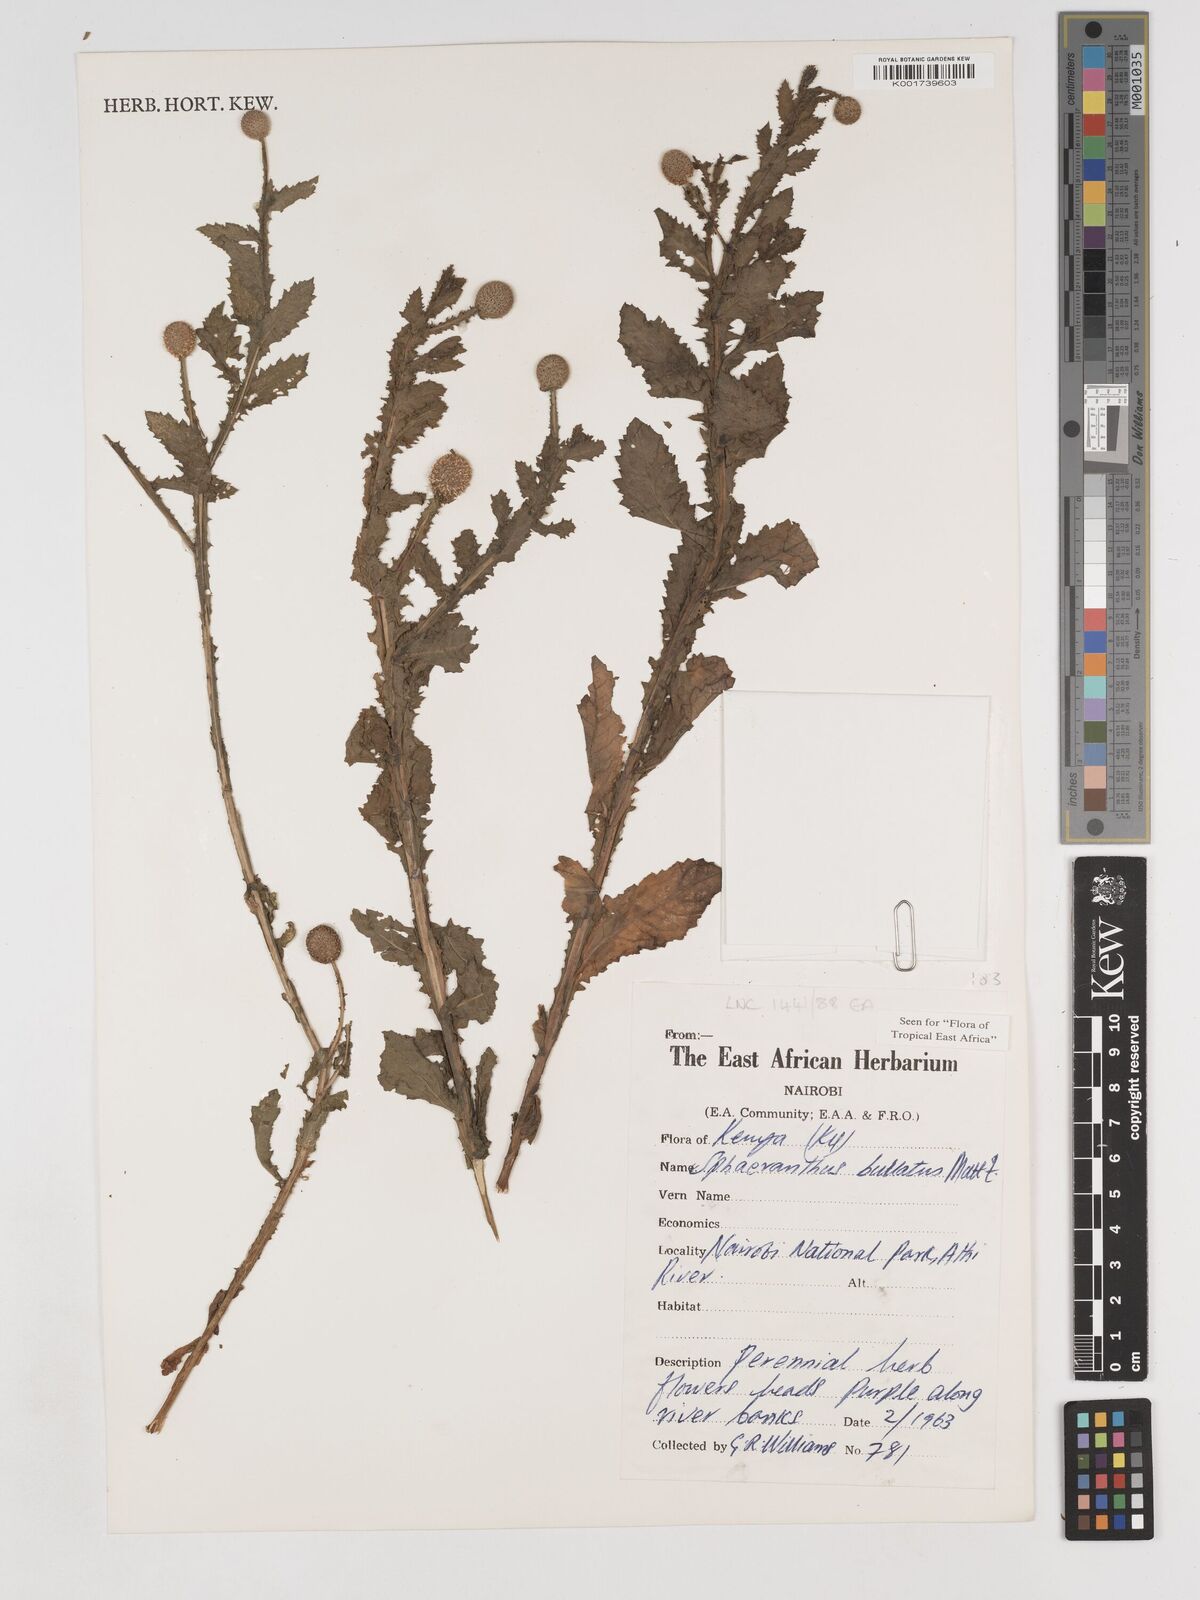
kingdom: Plantae
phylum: Tracheophyta
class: Magnoliopsida
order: Asterales
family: Asteraceae
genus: Sphaeranthus
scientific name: Sphaeranthus bullatus
